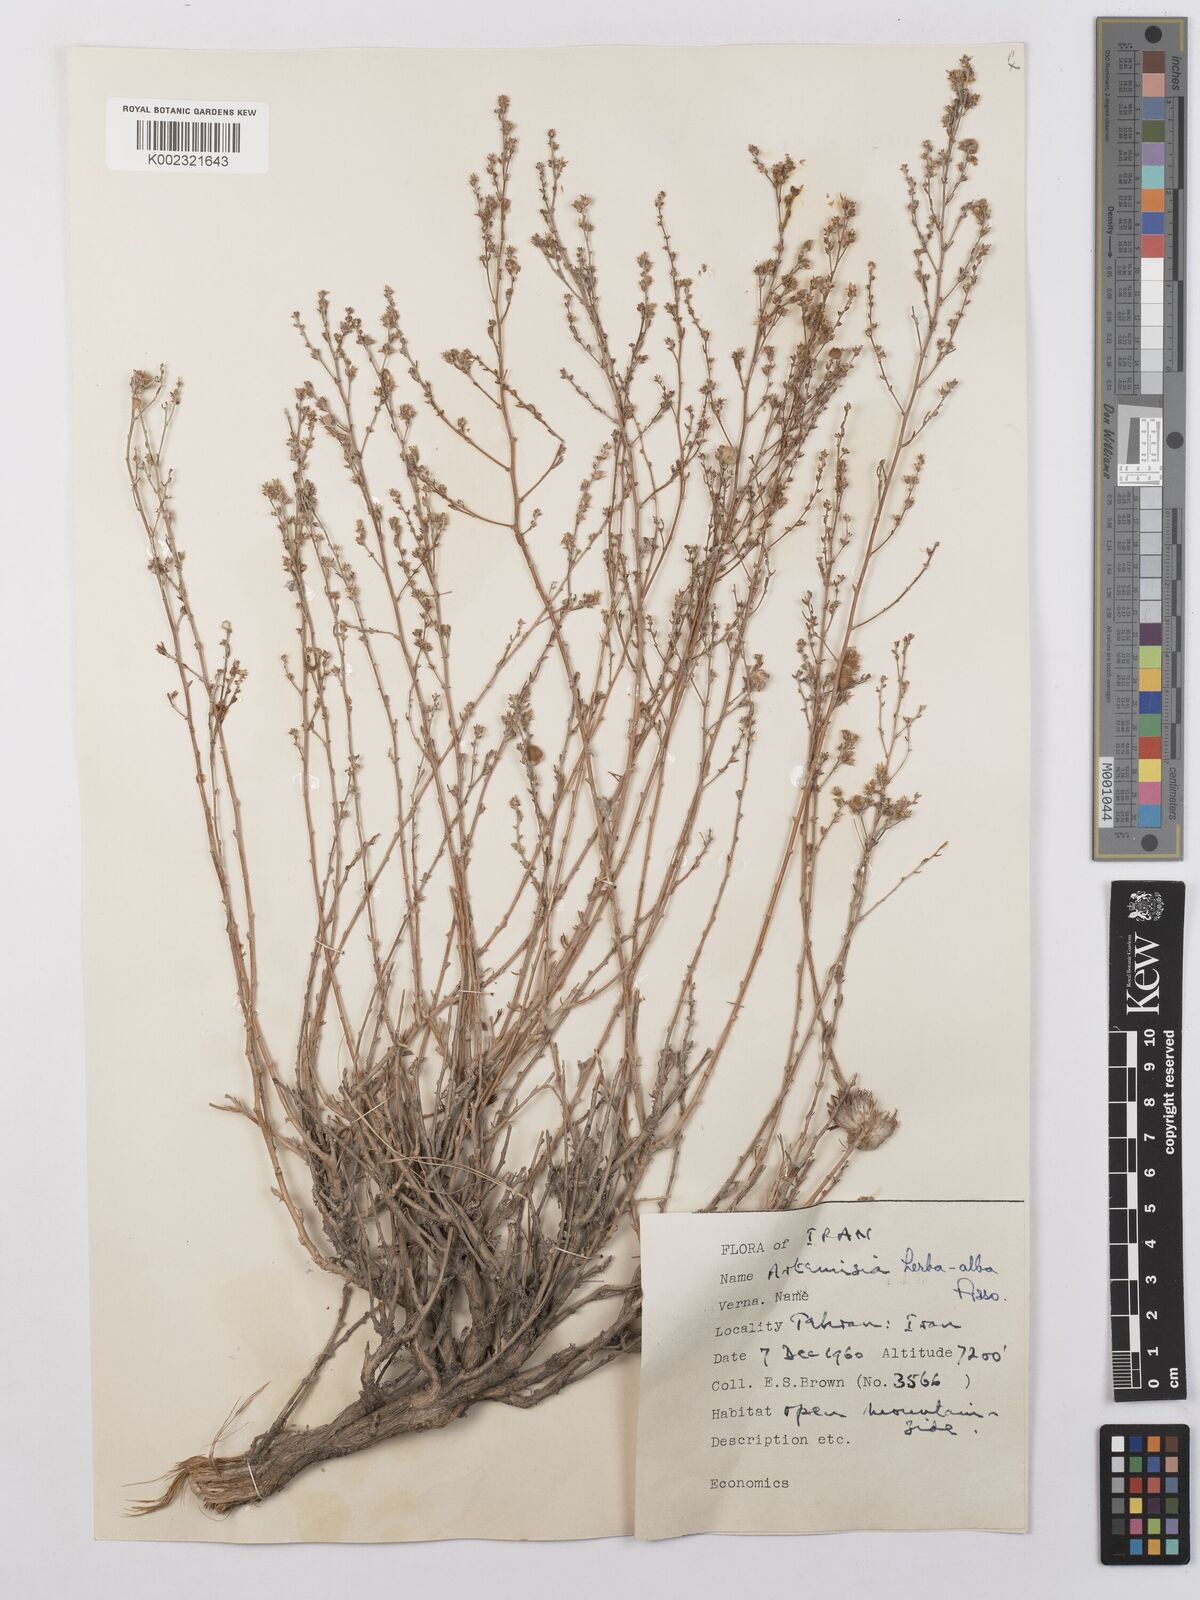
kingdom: Plantae
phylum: Tracheophyta
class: Magnoliopsida
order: Asterales
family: Asteraceae
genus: Artemisia
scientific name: Artemisia herba-alba
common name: White wormwood
